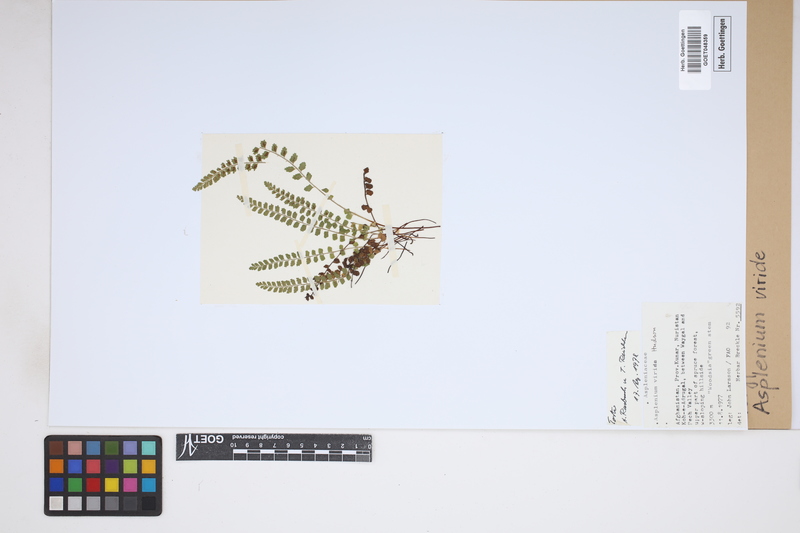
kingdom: Plantae
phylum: Tracheophyta
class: Polypodiopsida
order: Polypodiales
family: Aspleniaceae
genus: Asplenium
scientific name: Asplenium viride
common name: Green spleenwort
